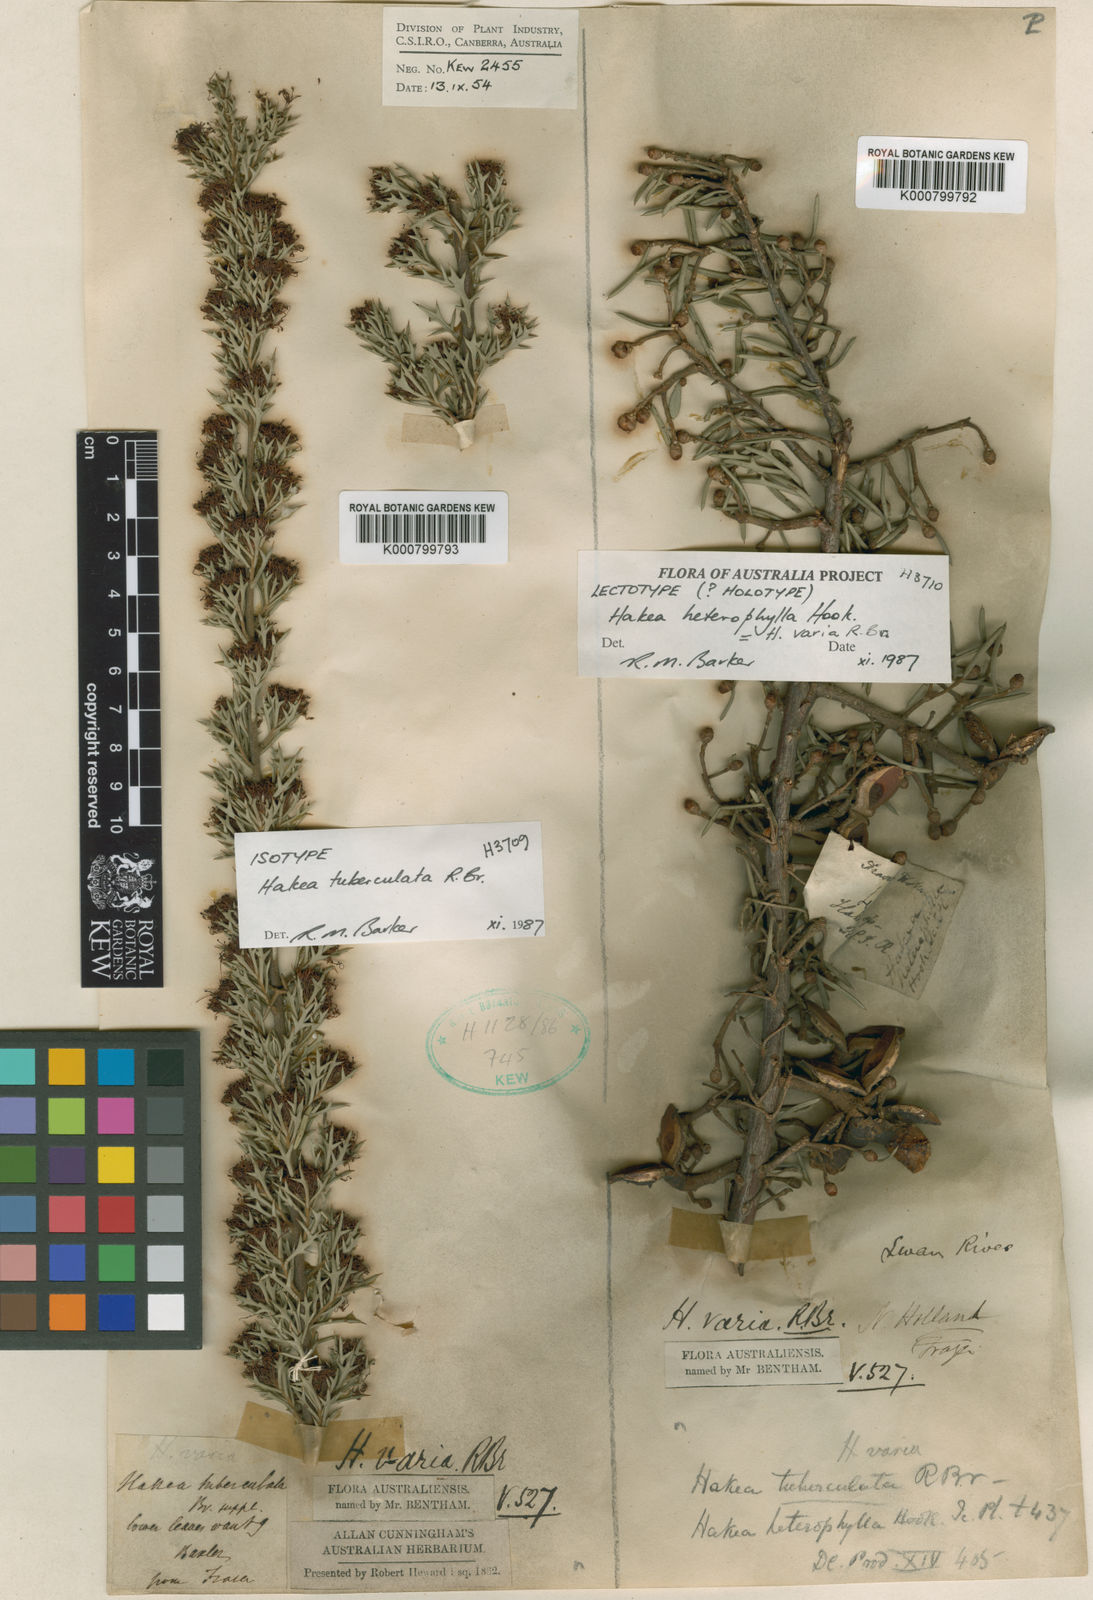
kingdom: Plantae
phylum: Tracheophyta
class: Magnoliopsida
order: Proteales
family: Proteaceae
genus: Hakea
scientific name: Hakea tuberculata
